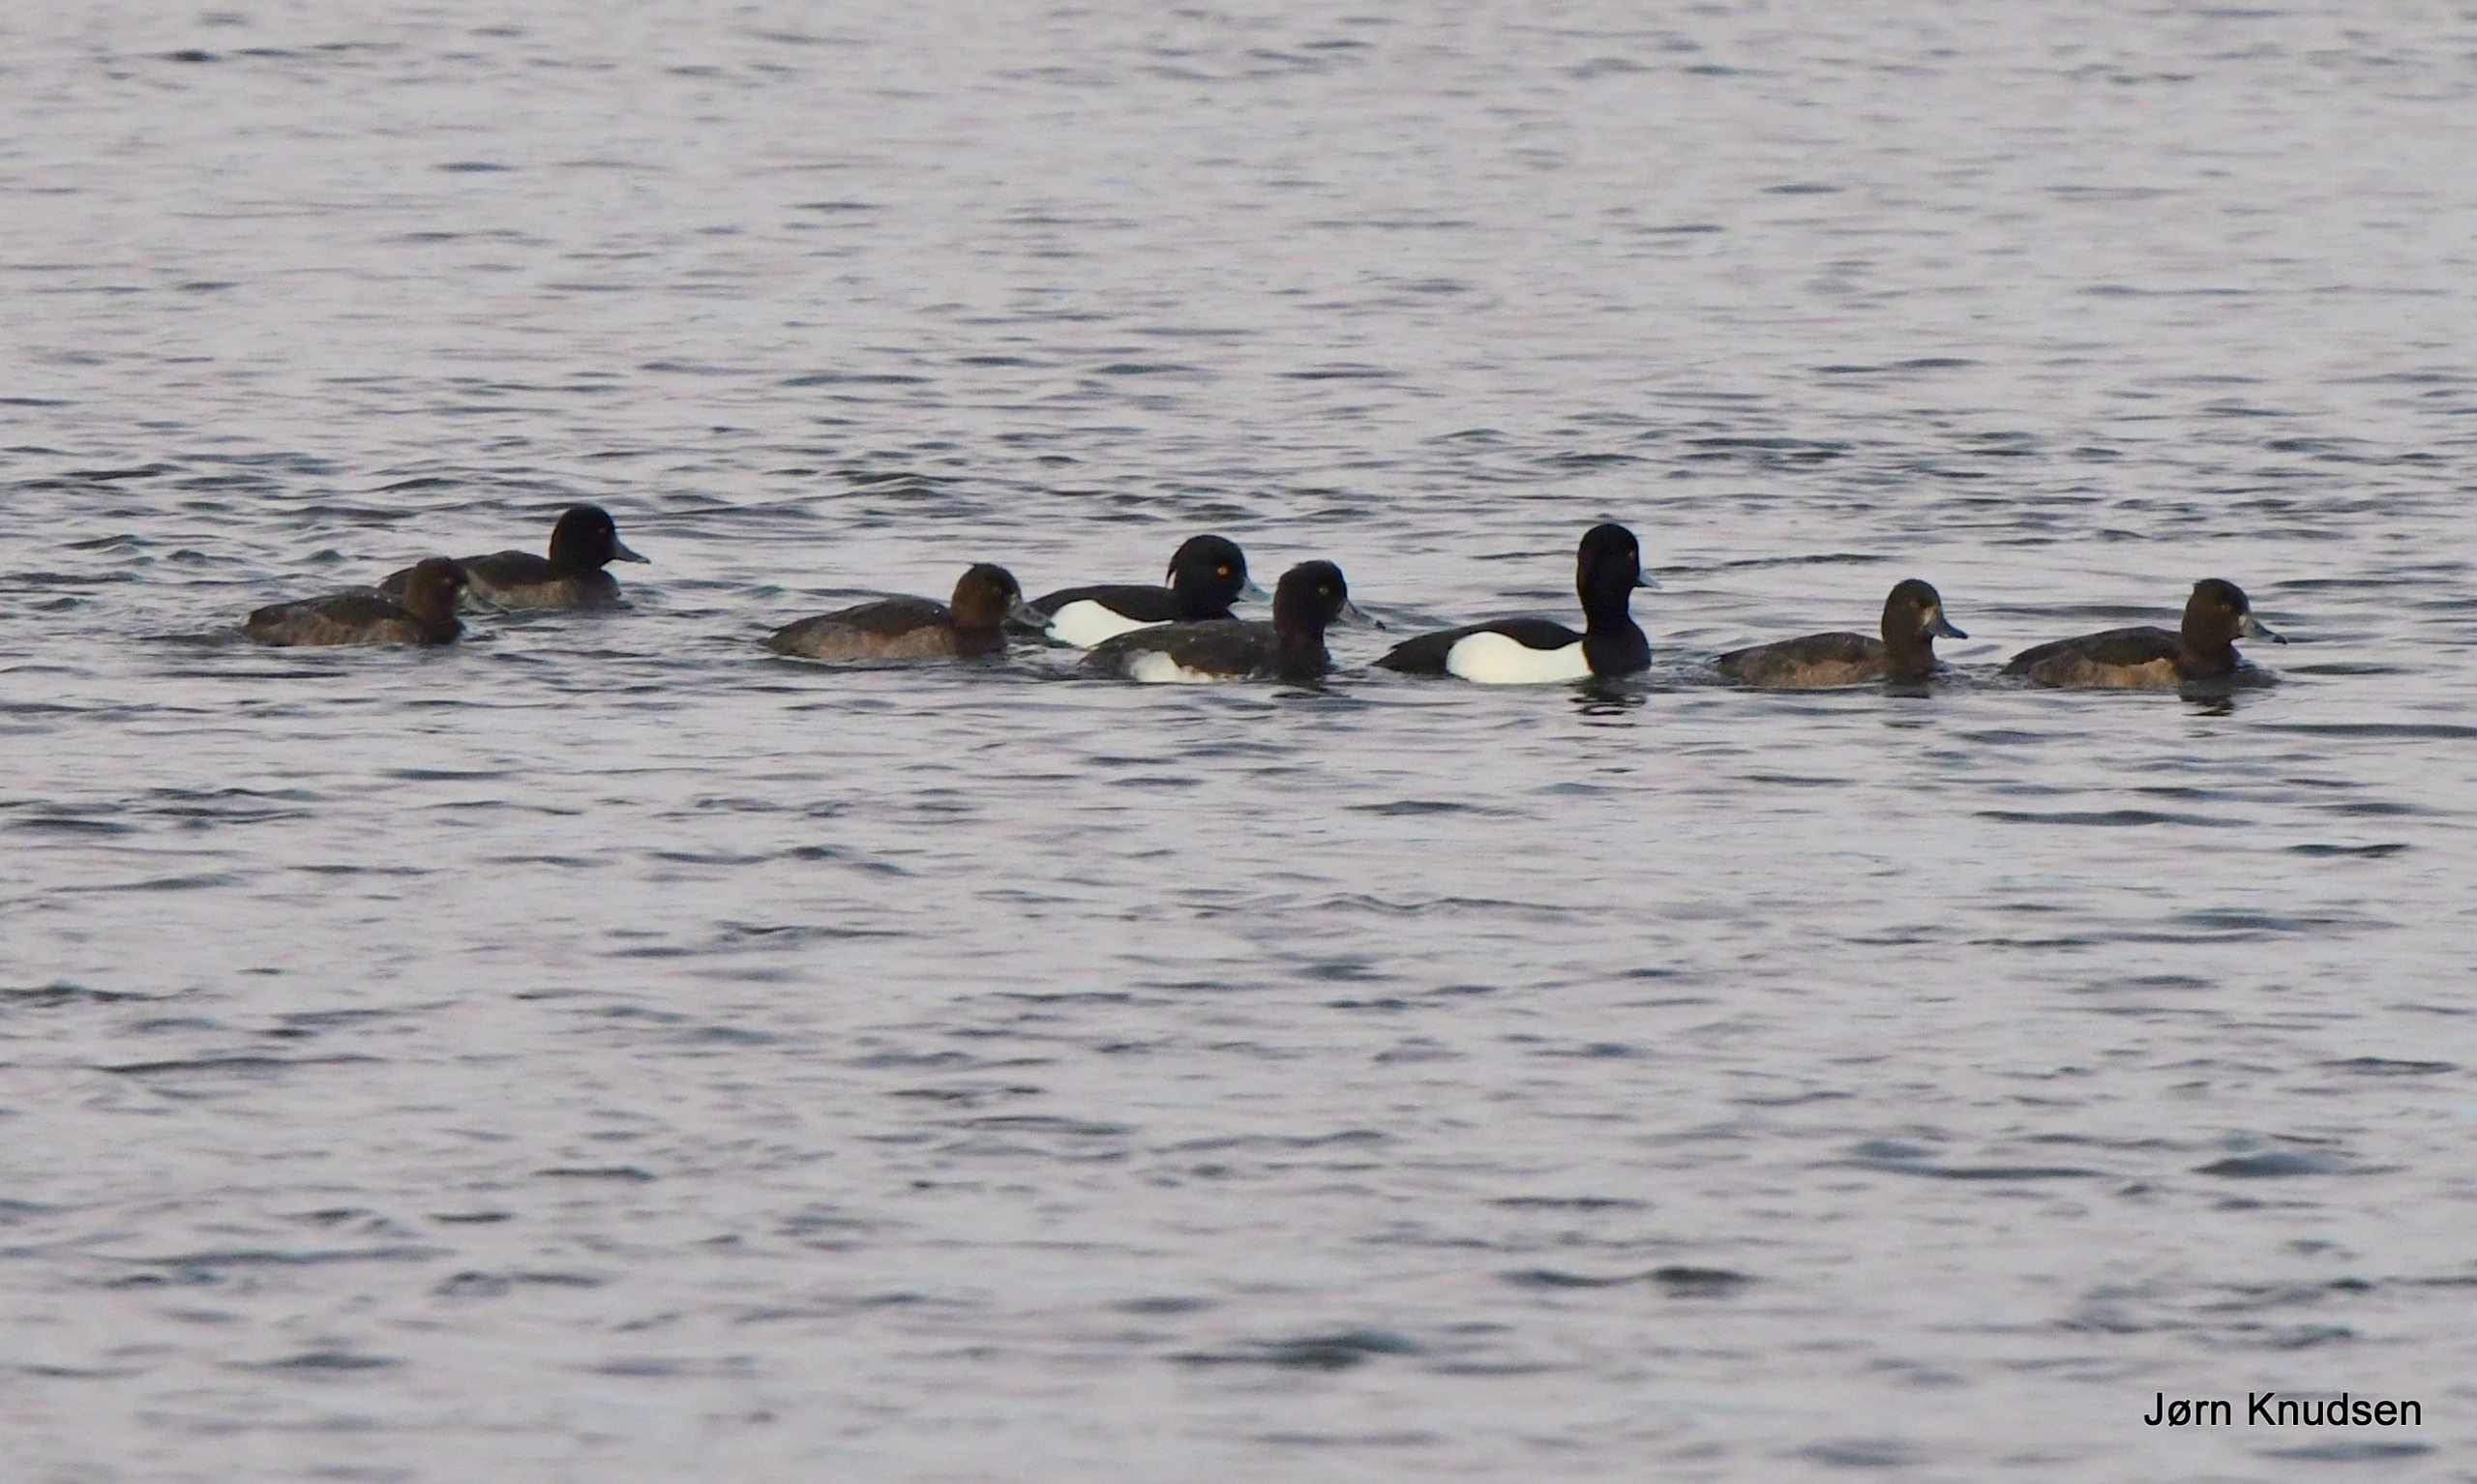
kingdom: Animalia
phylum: Chordata
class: Aves
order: Anseriformes
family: Anatidae
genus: Aythya
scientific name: Aythya fuligula
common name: Troldand
